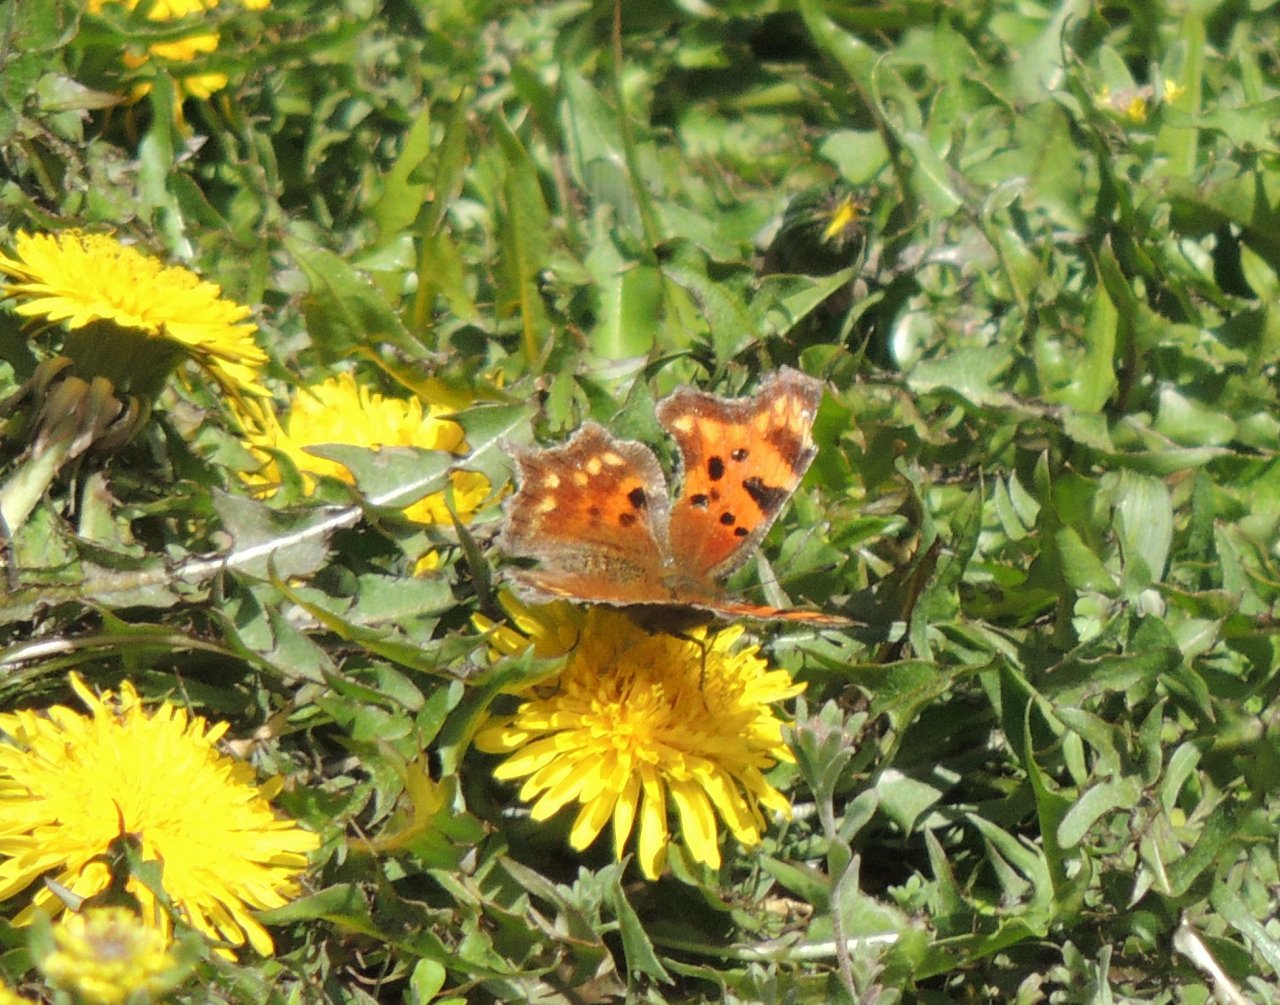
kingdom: Animalia
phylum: Arthropoda
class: Insecta
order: Lepidoptera
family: Nymphalidae
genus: Polygonia
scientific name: Polygonia faunus
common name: Green Comma
